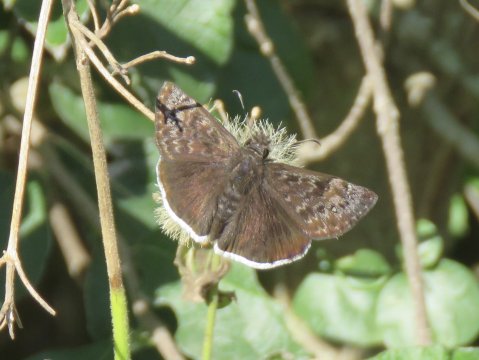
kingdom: Animalia
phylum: Arthropoda
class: Insecta
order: Lepidoptera
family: Hesperiidae
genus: Erynnis
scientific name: Erynnis tristis
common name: Mournful Duskywing
